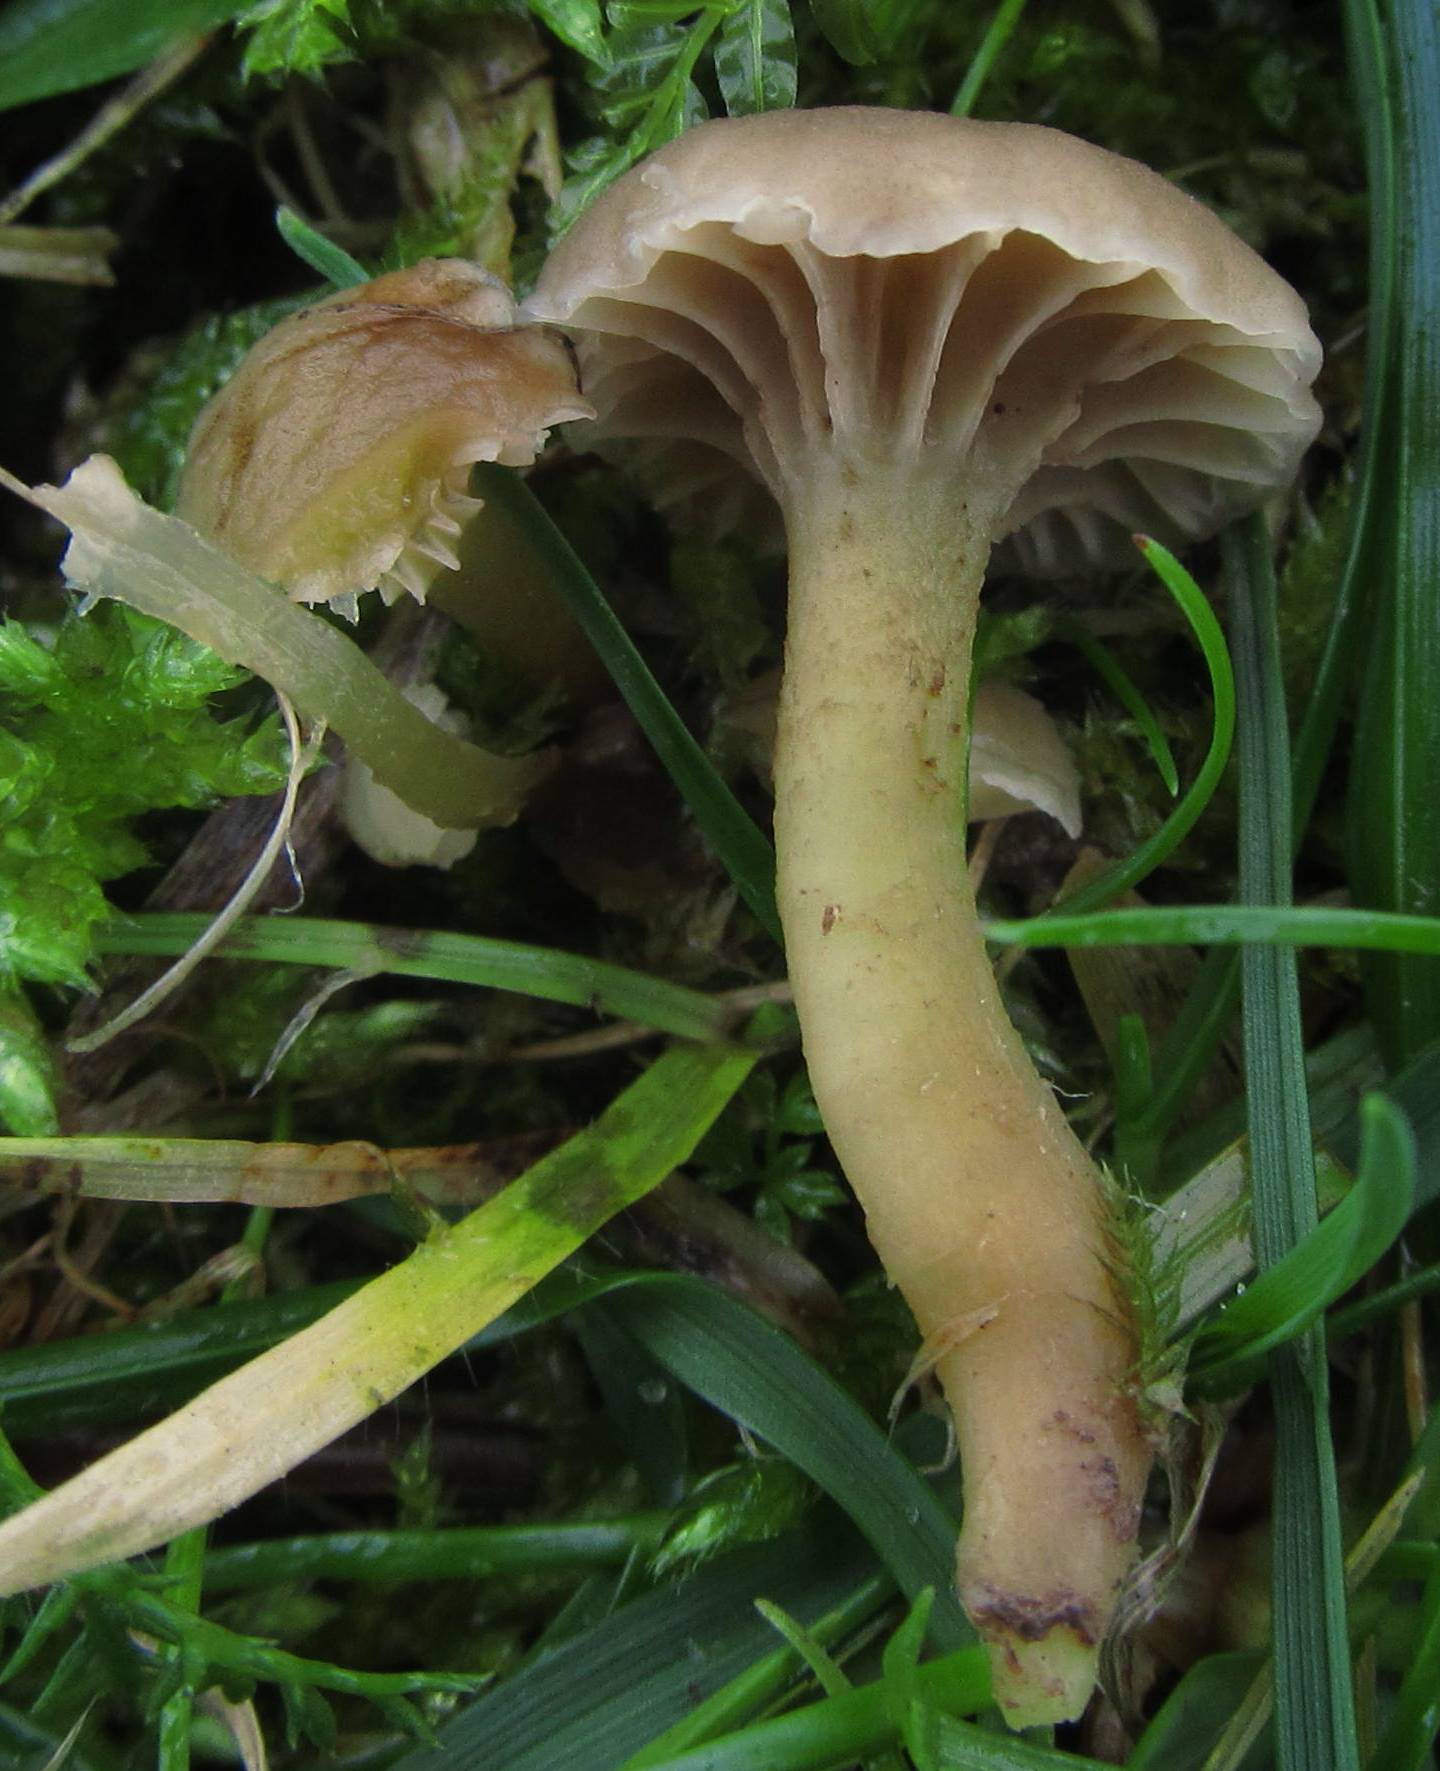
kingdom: Fungi
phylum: Basidiomycota
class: Agaricomycetes
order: Agaricales
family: Clavariaceae
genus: Hodophilus
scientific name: Hodophilus micaceus
